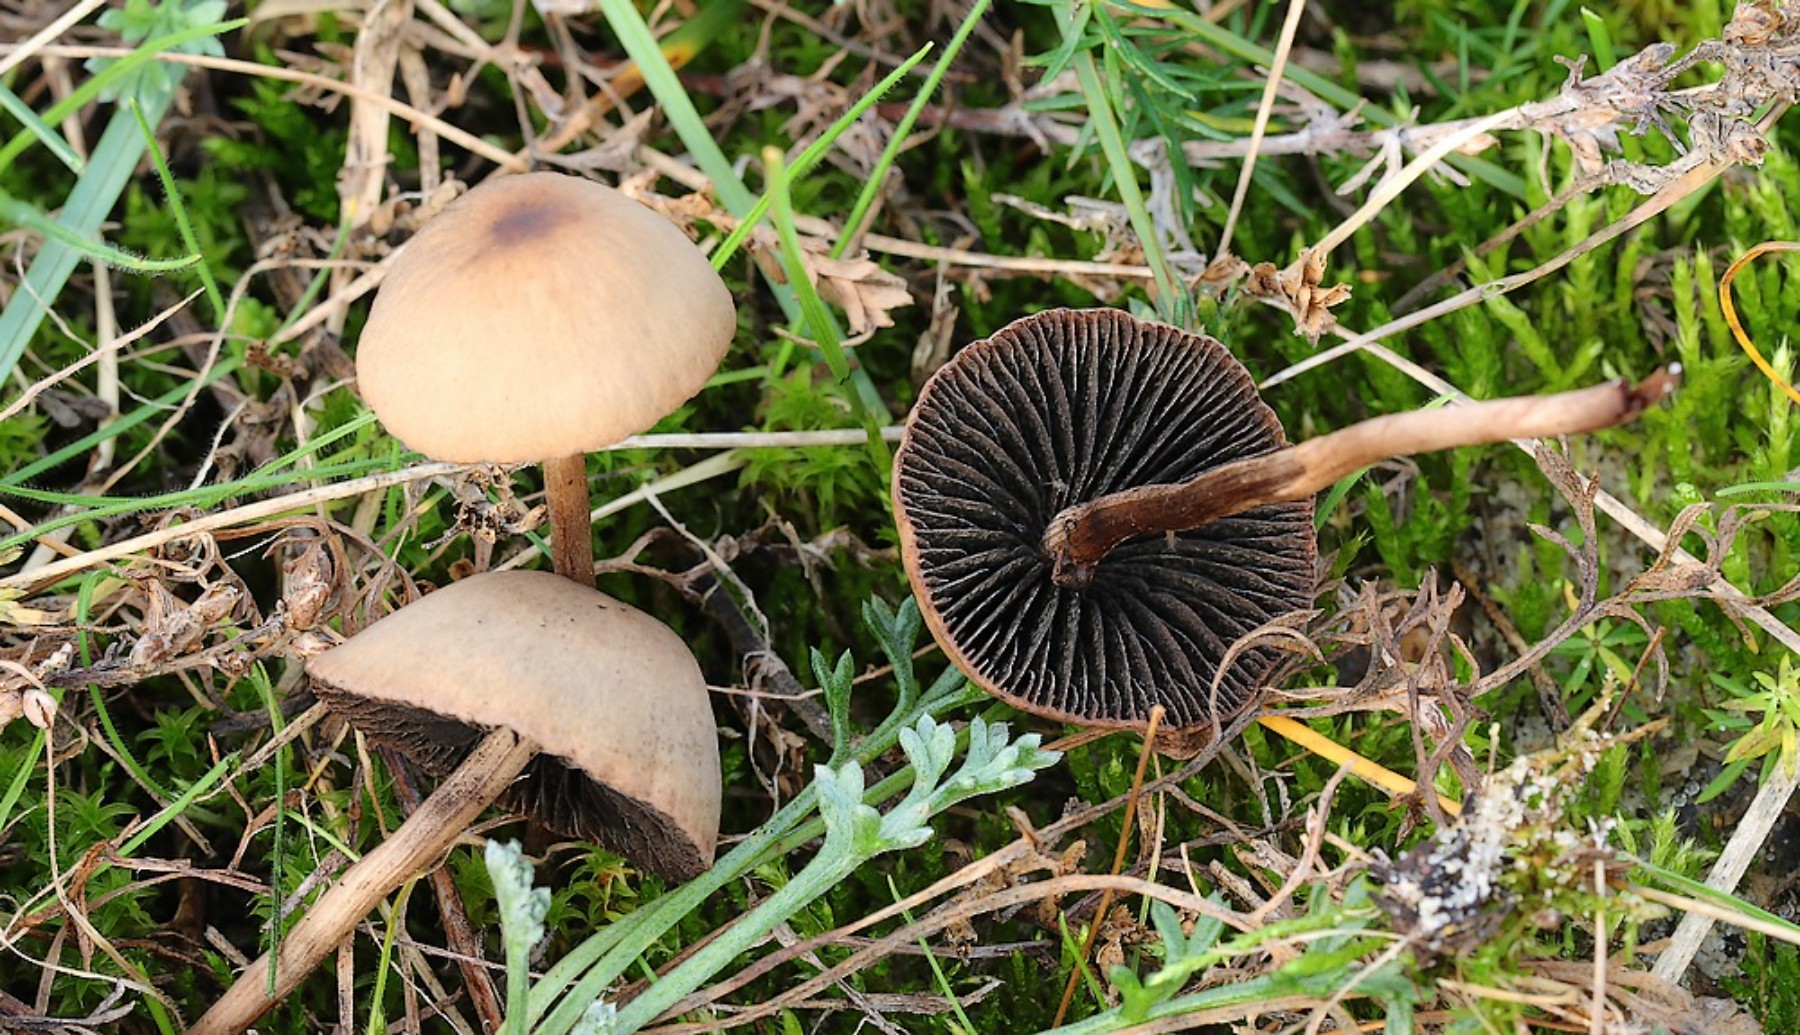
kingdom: Fungi
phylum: Basidiomycota
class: Agaricomycetes
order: Agaricales
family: Bolbitiaceae
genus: Panaeolus
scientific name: Panaeolus
